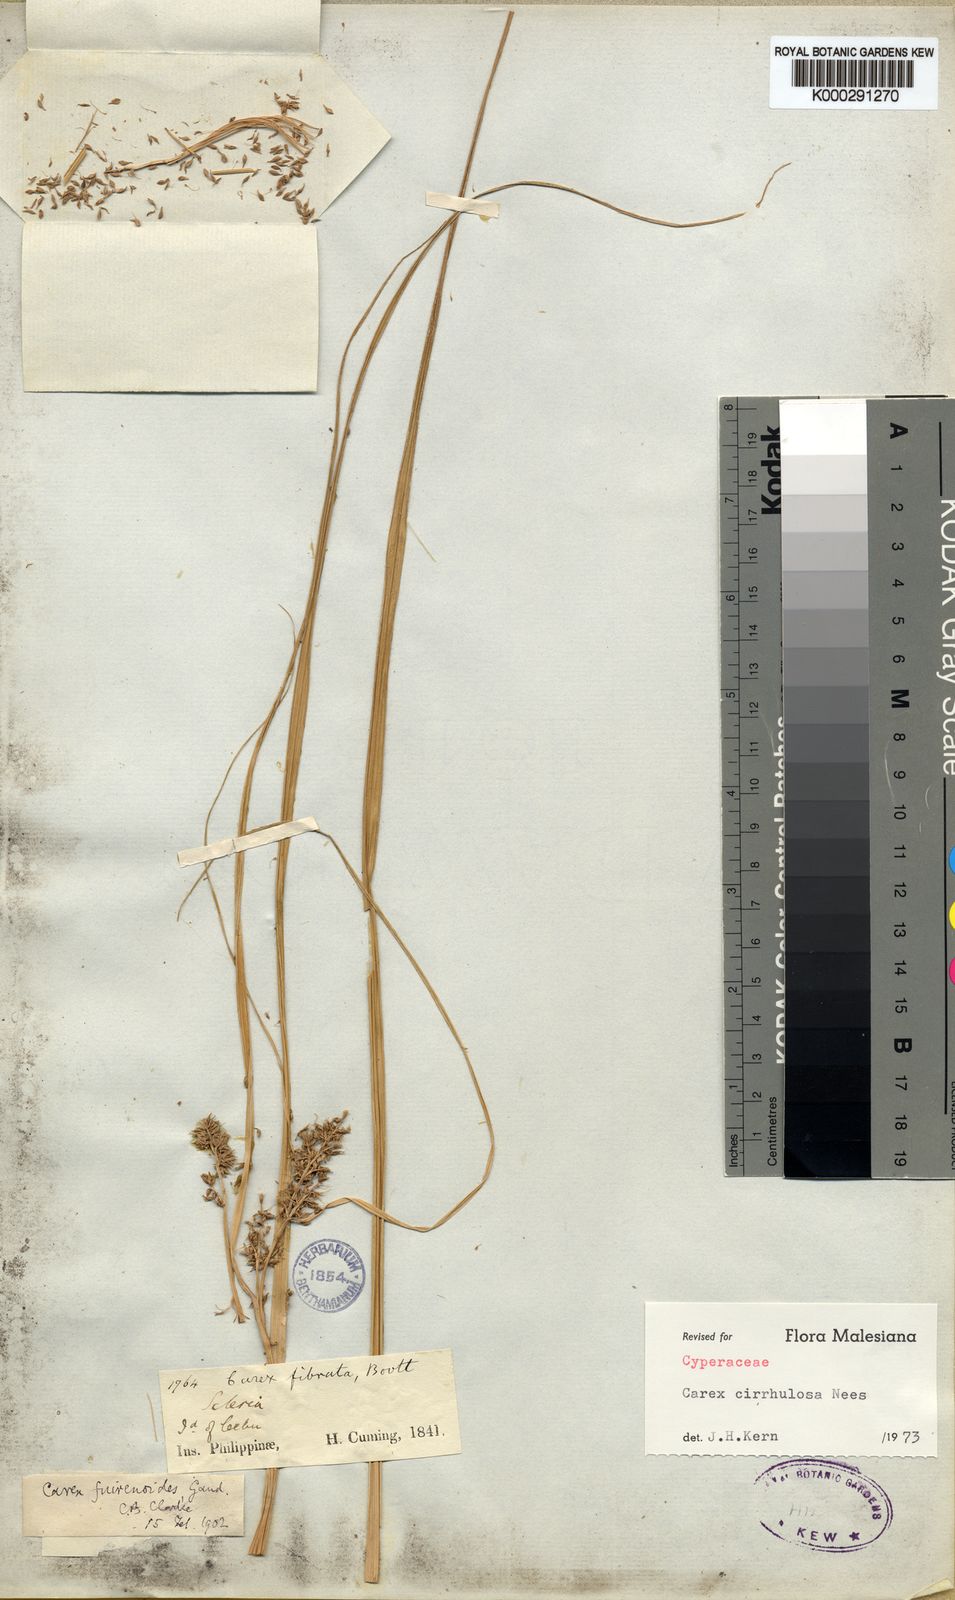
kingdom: Plantae
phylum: Tracheophyta
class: Liliopsida
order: Poales
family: Cyperaceae
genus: Carex
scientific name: Carex cirrhulosa
